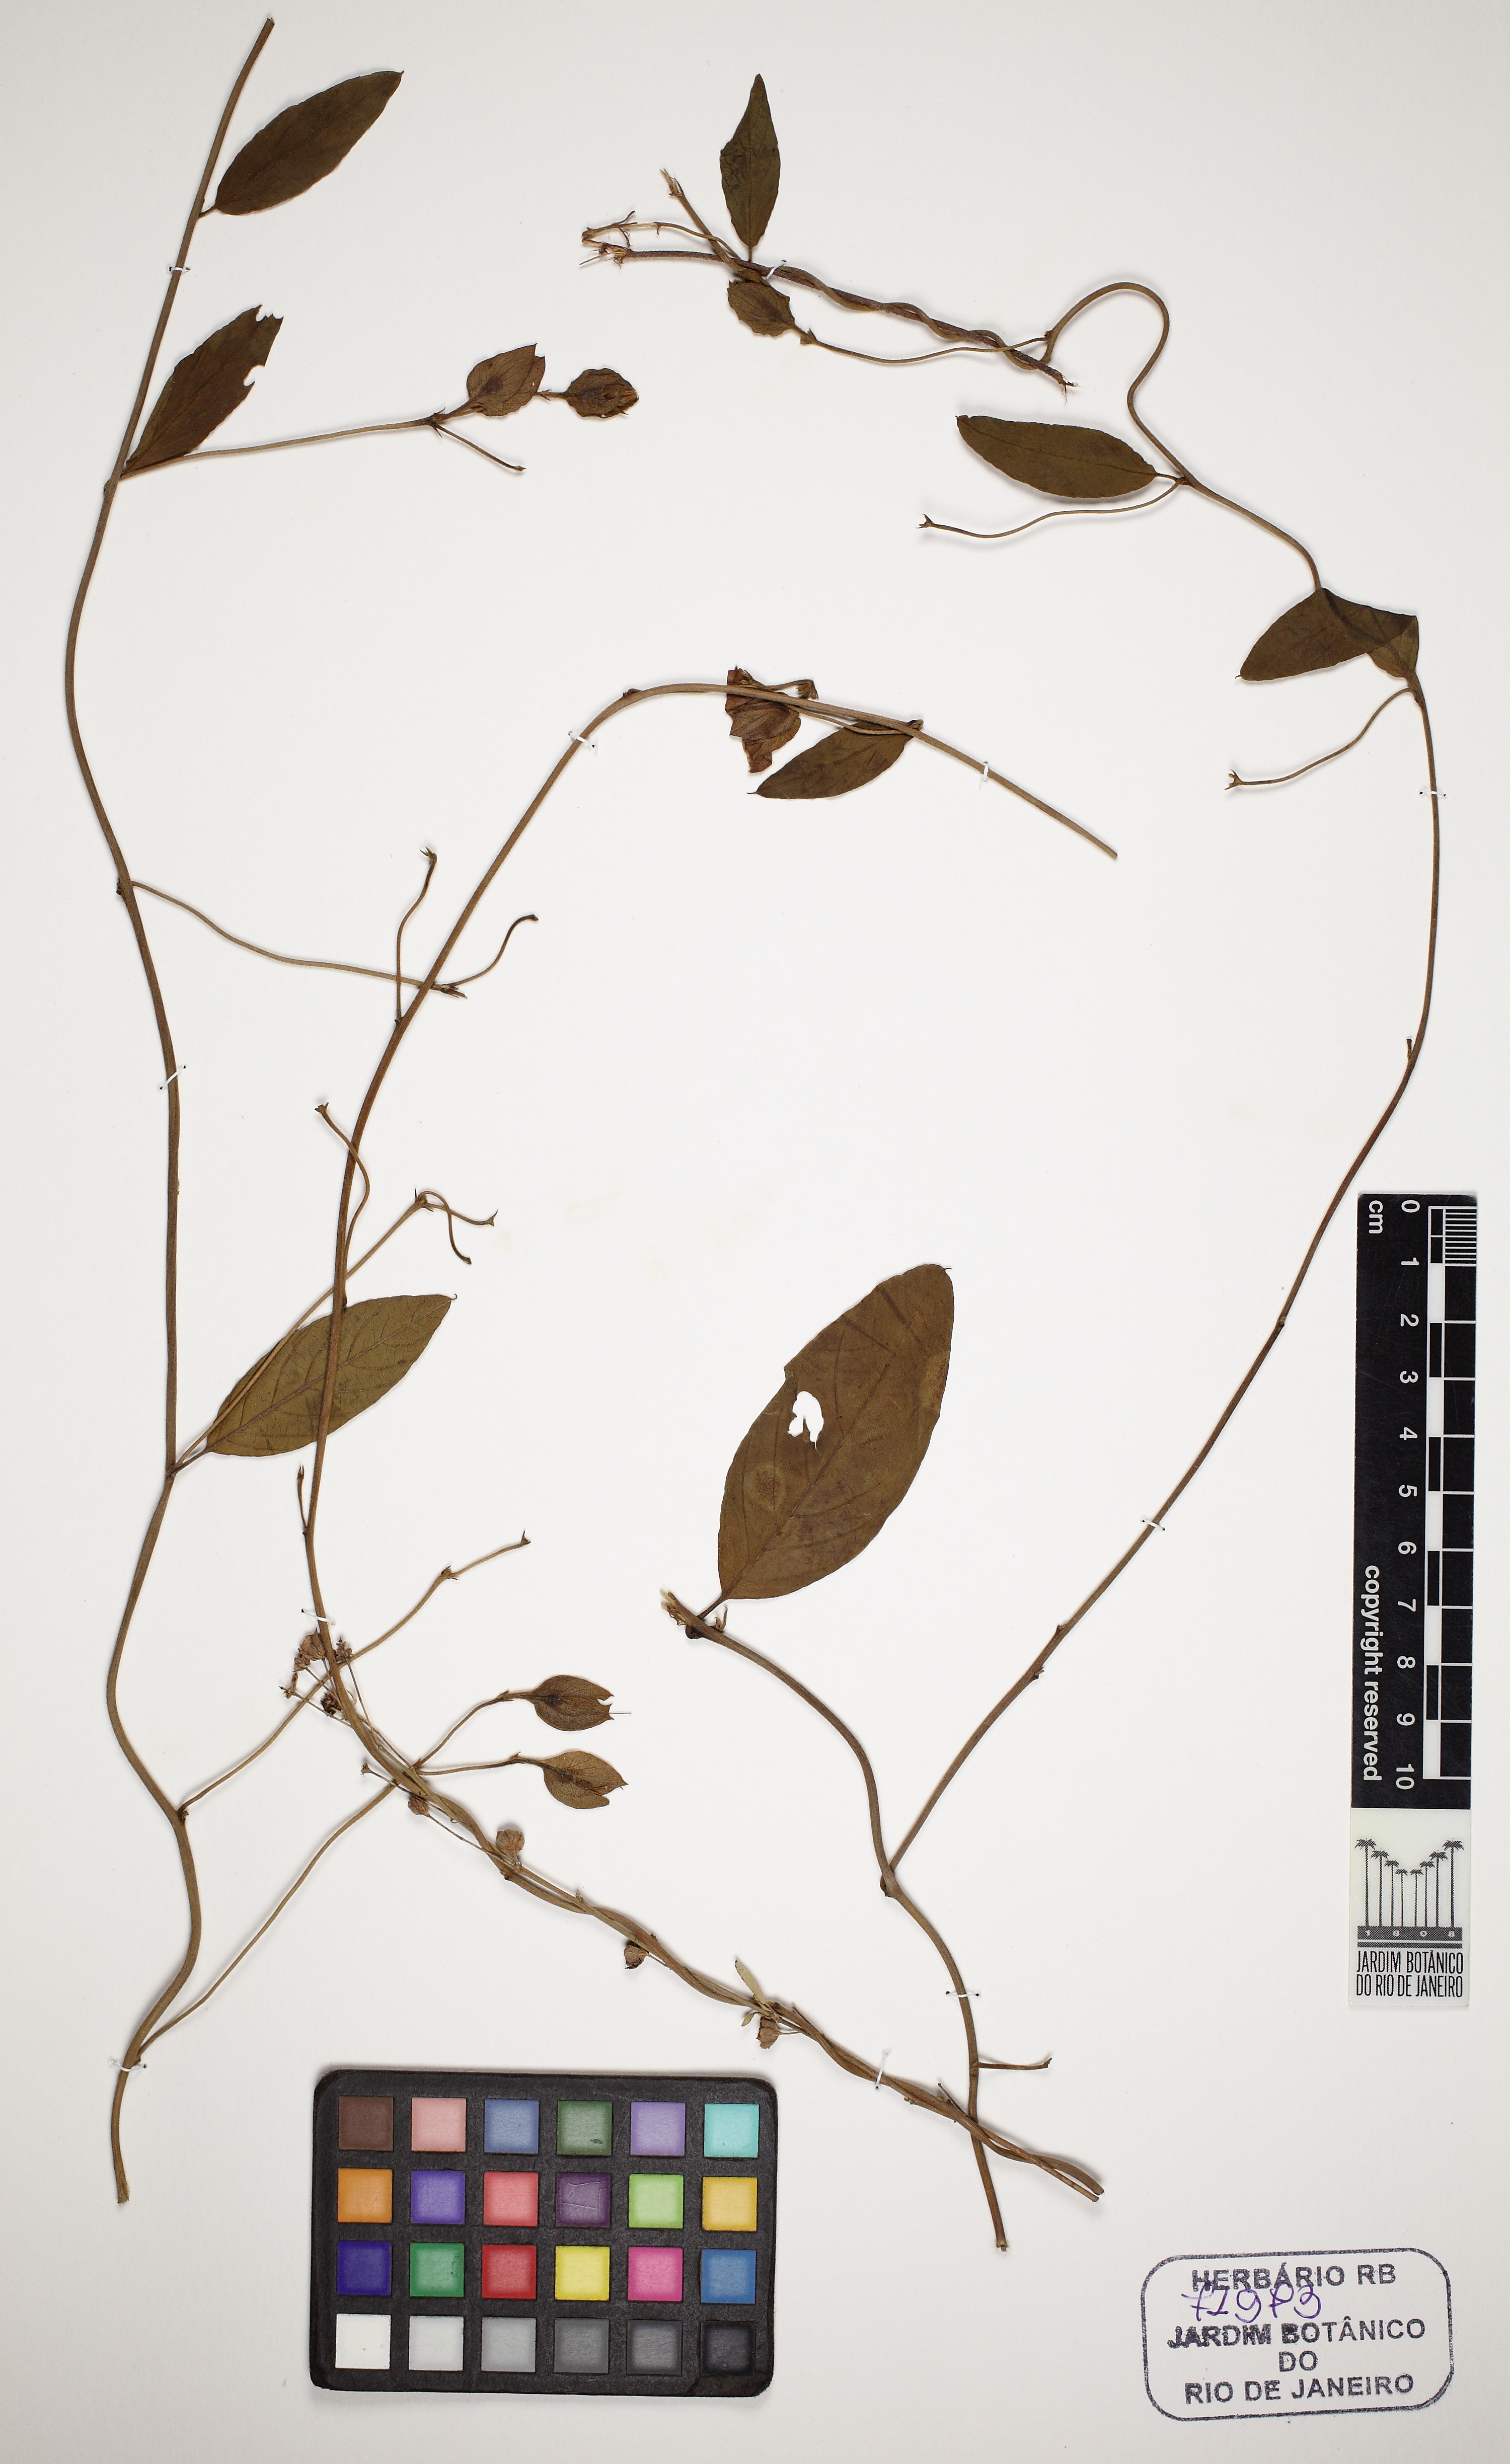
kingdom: Plantae
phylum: Tracheophyta
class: Magnoliopsida
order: Solanales
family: Convolvulaceae
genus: Aniseia
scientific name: Aniseia
